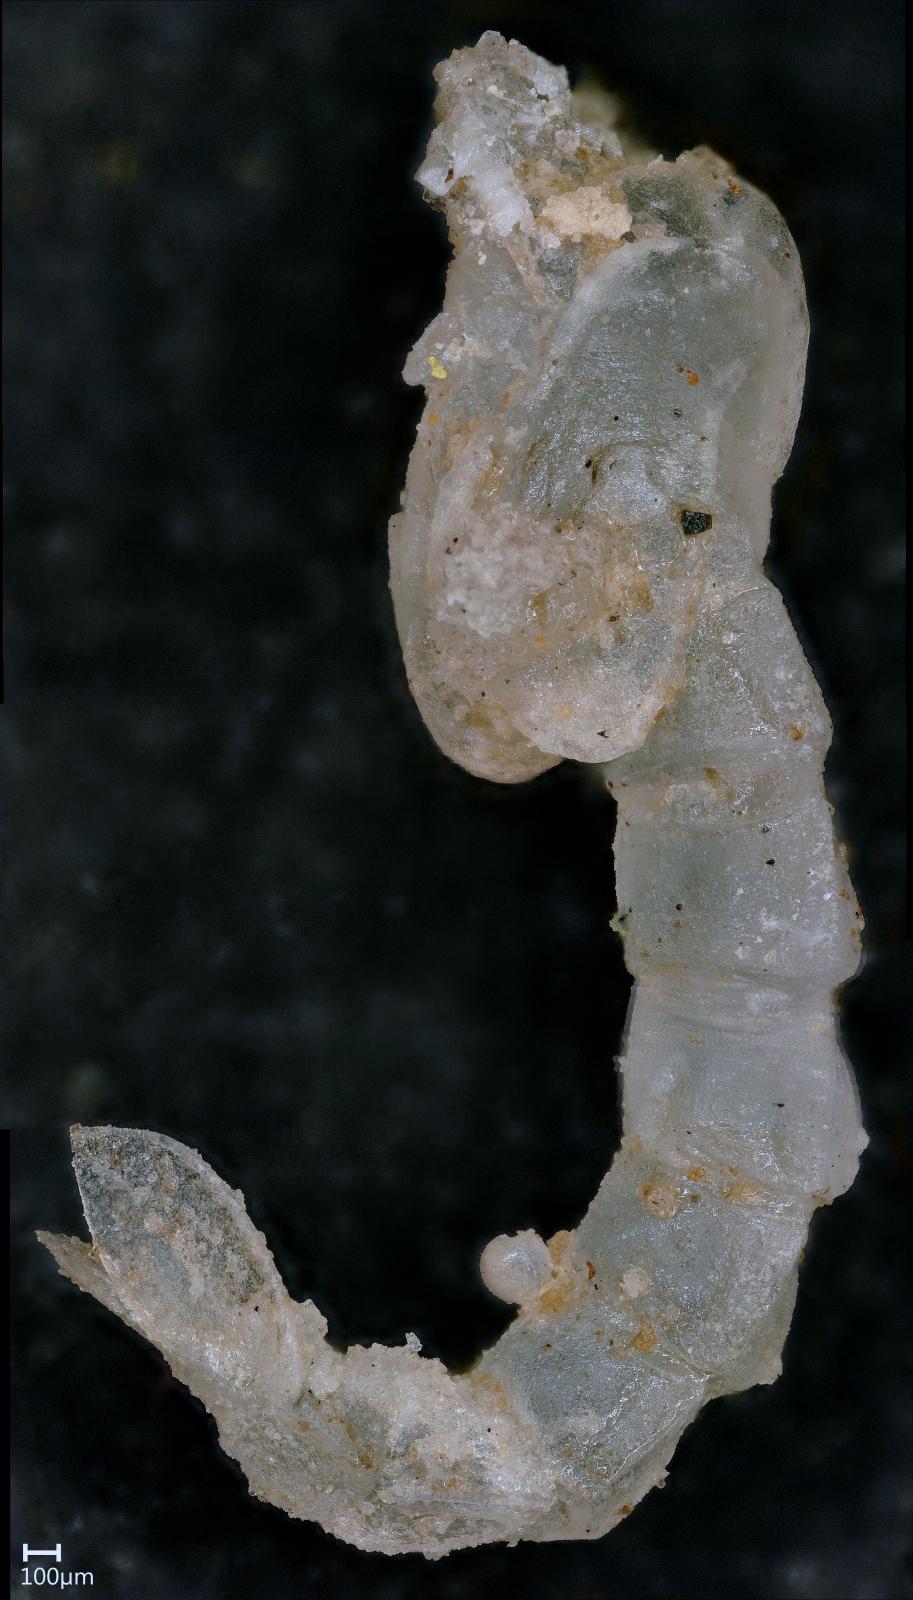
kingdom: Animalia
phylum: Arthropoda
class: Insecta
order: Diptera
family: Culicidae
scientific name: Culicidae
